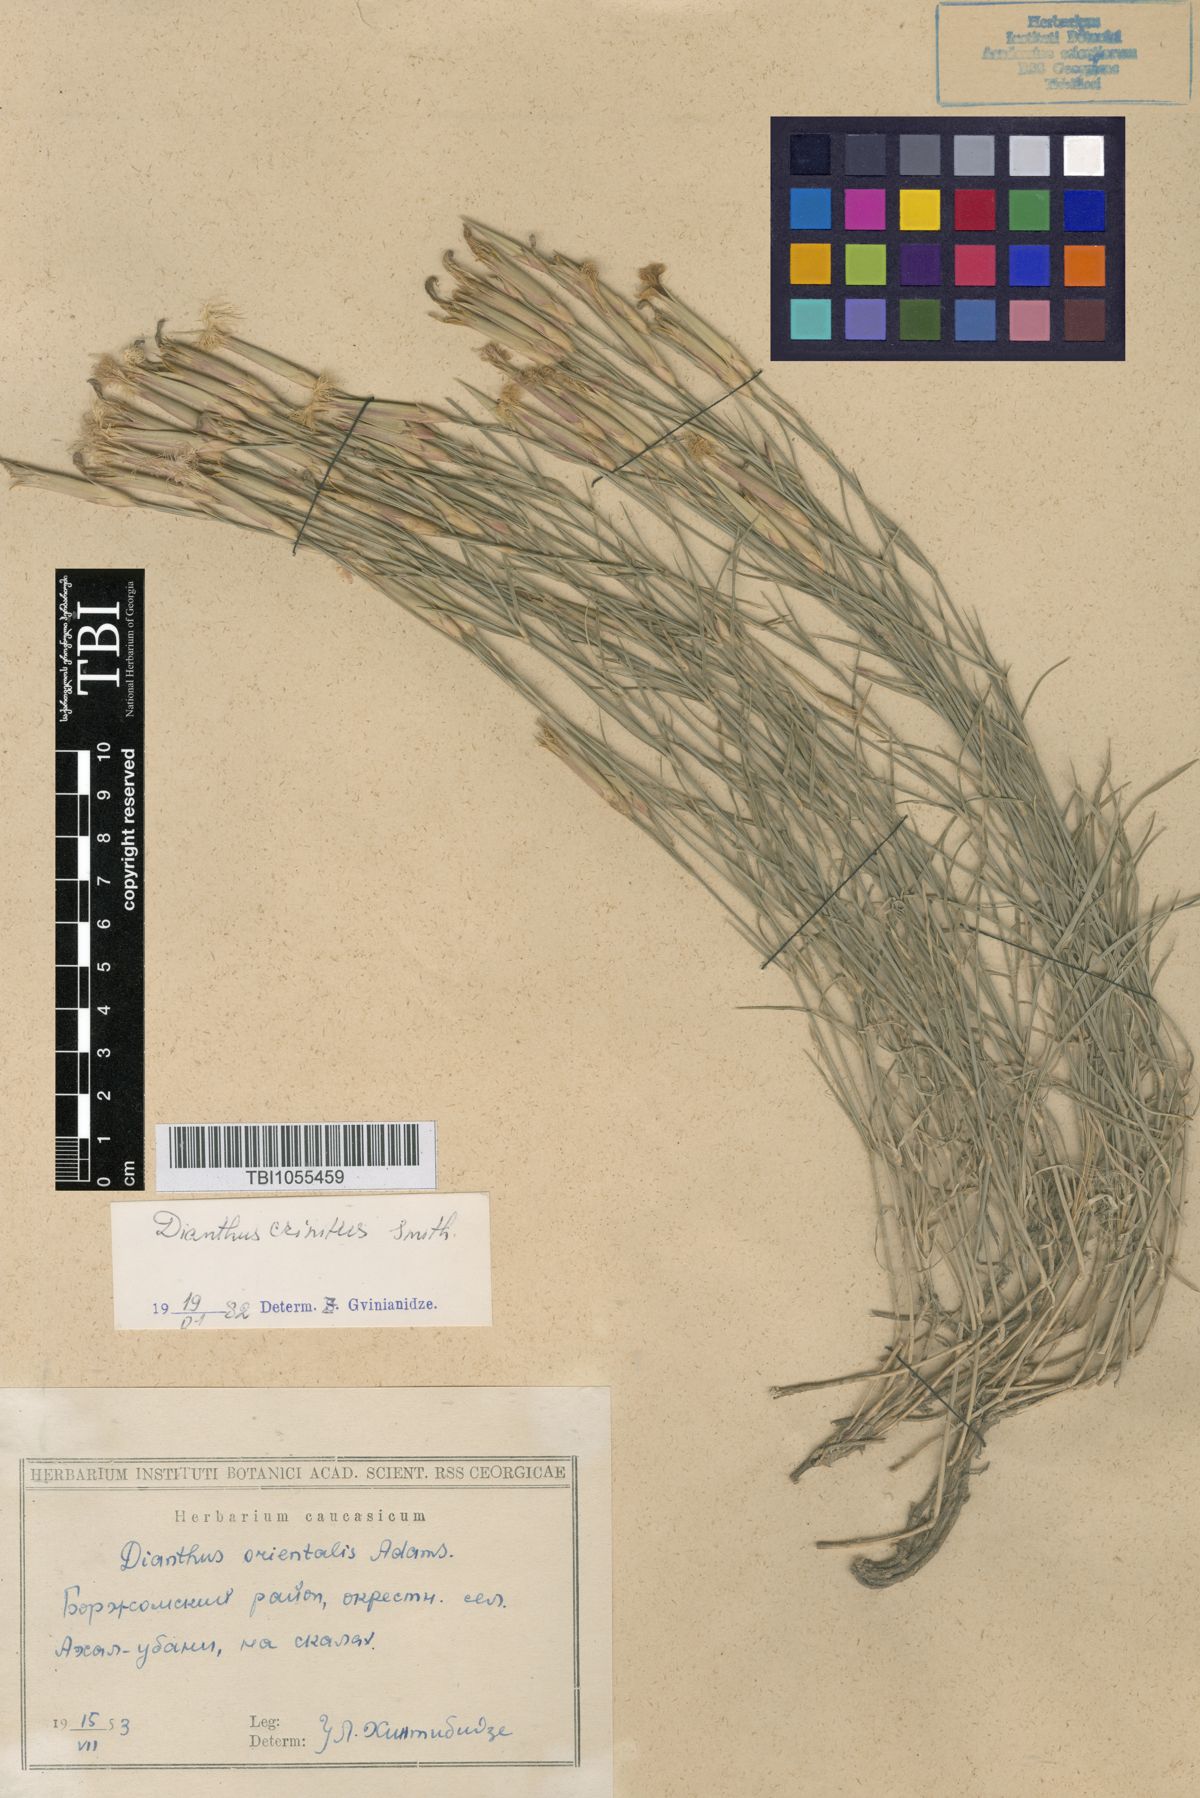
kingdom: Plantae
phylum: Tracheophyta
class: Magnoliopsida
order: Caryophyllales
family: Caryophyllaceae
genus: Dianthus
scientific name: Dianthus crinitus
